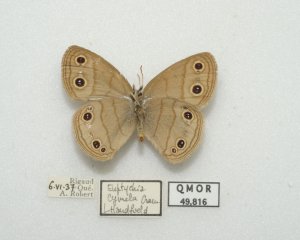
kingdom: Animalia
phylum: Arthropoda
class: Insecta
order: Lepidoptera
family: Nymphalidae
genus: Euptychia
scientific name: Euptychia cymela
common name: Little Wood Satyr
